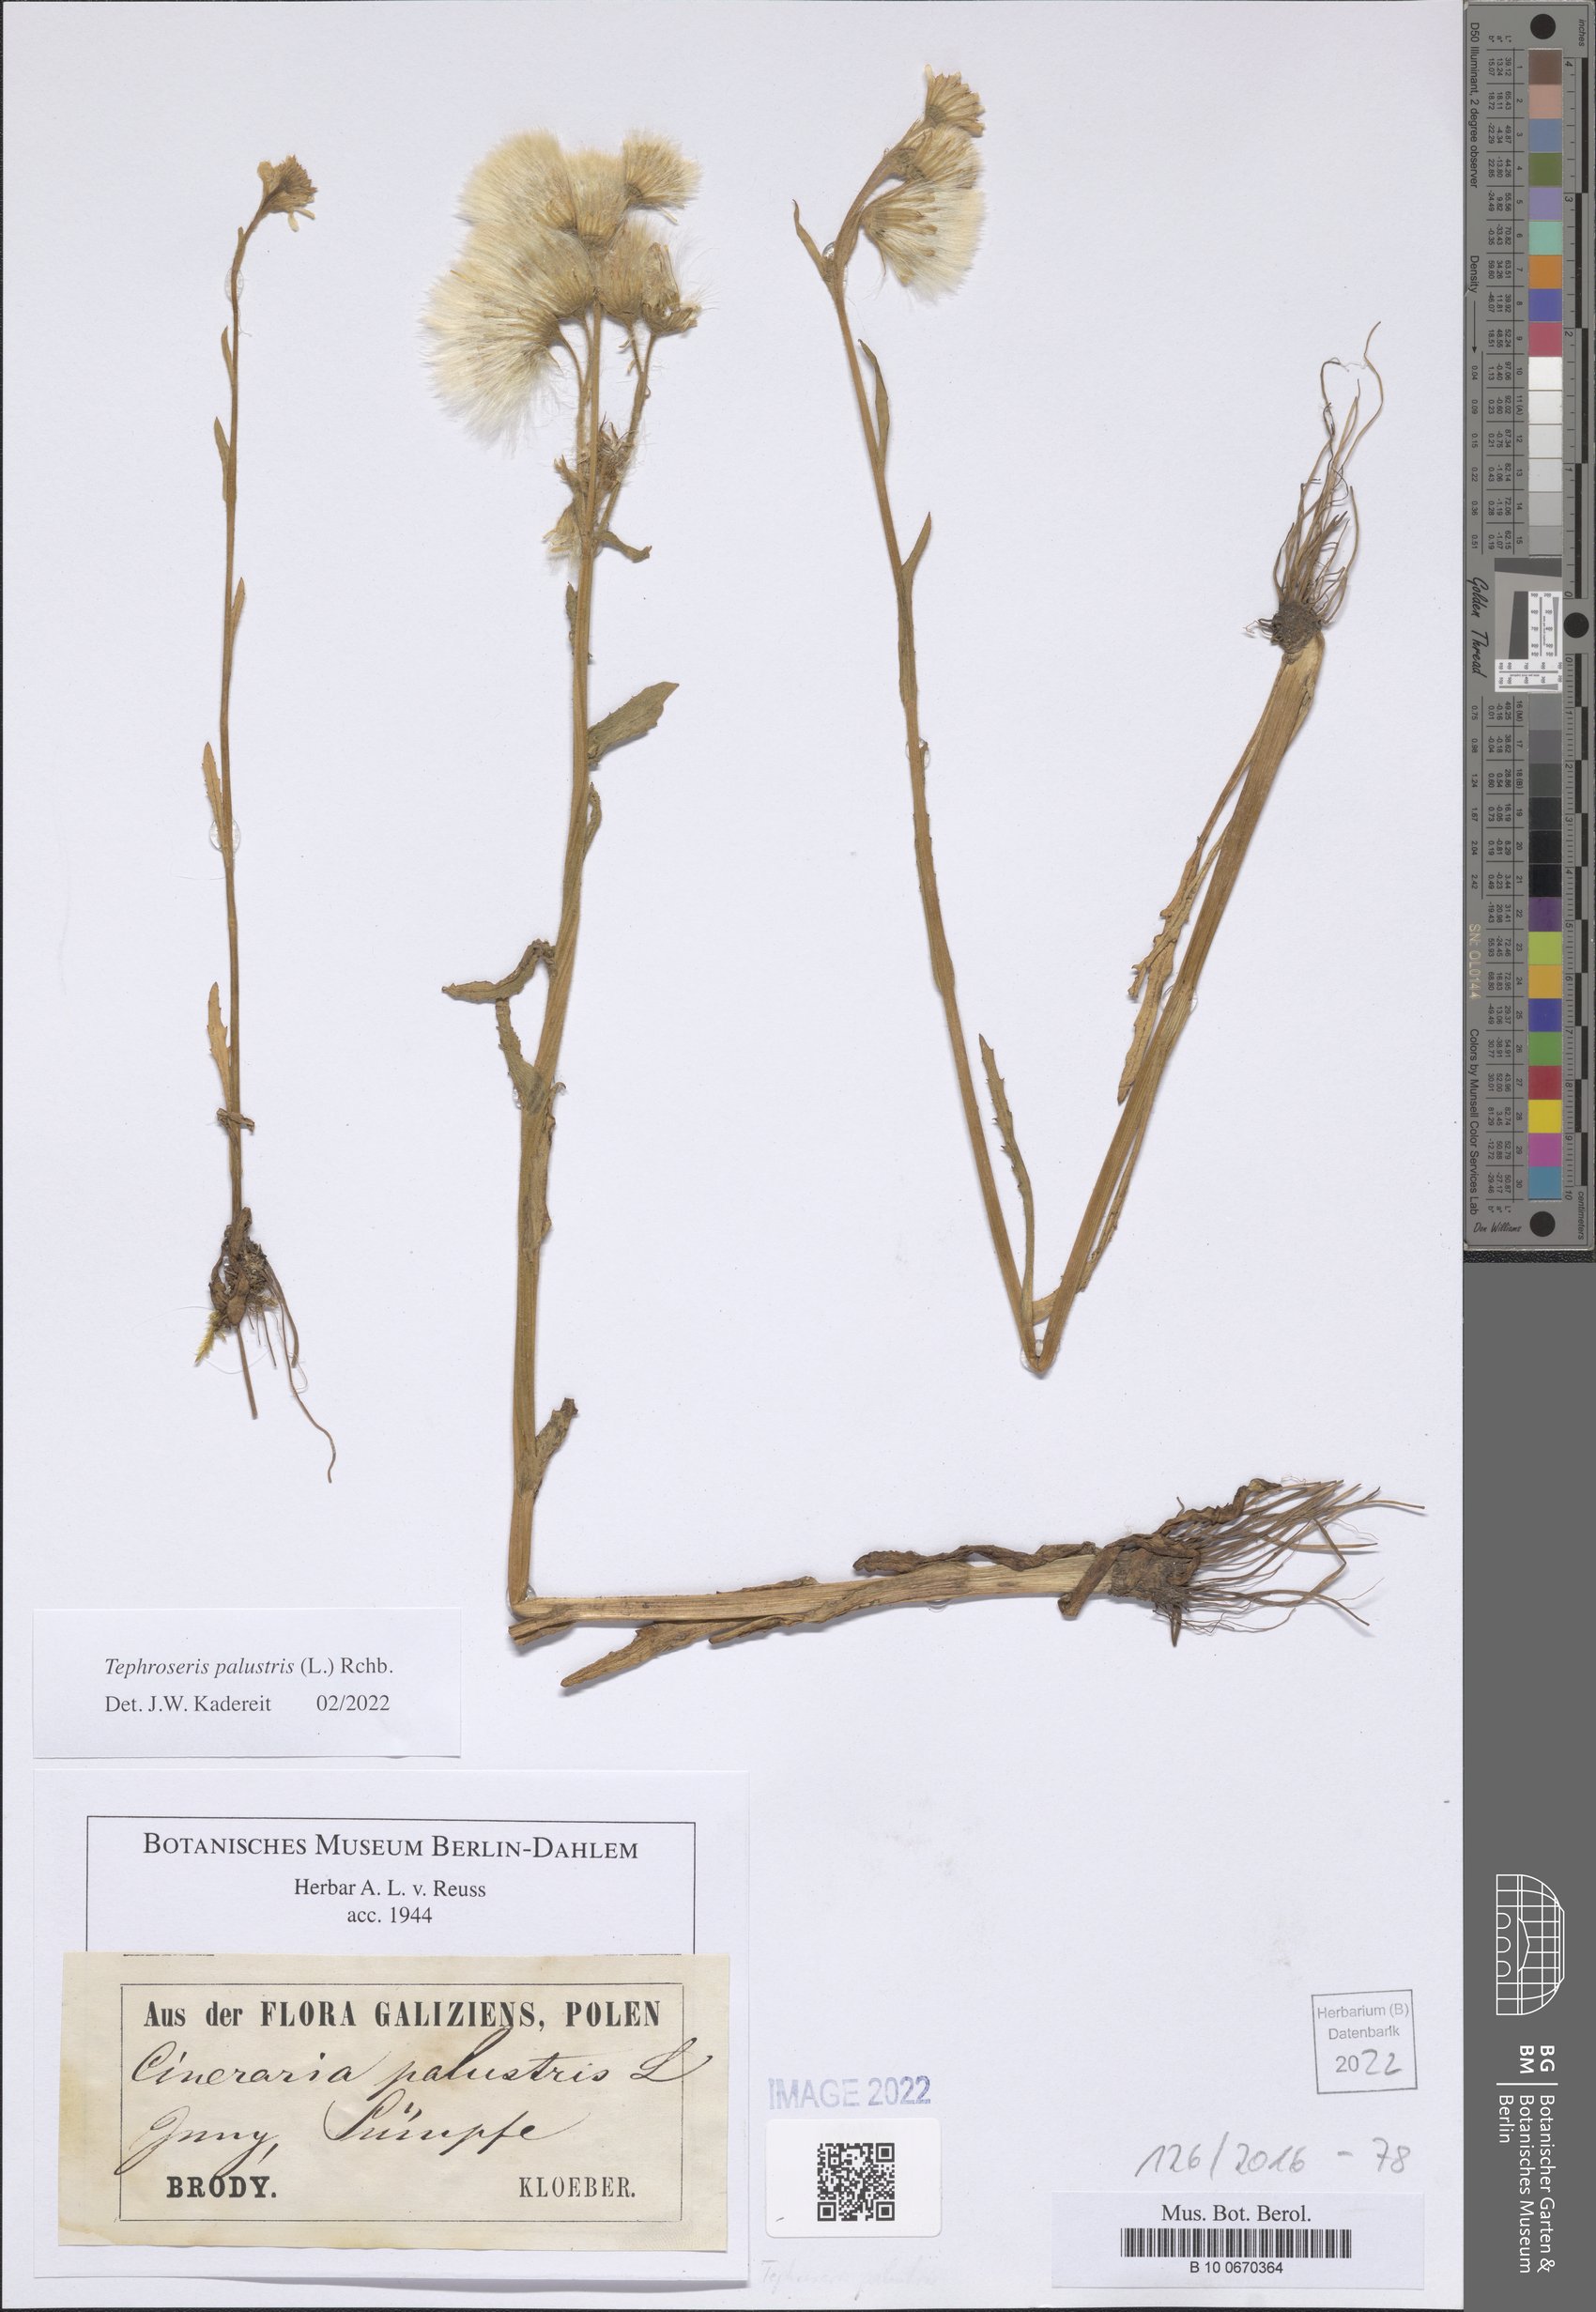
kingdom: Plantae
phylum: Tracheophyta
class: Magnoliopsida
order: Asterales
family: Asteraceae
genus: Tephroseris
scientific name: Tephroseris palustris
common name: Marsh fleawort
